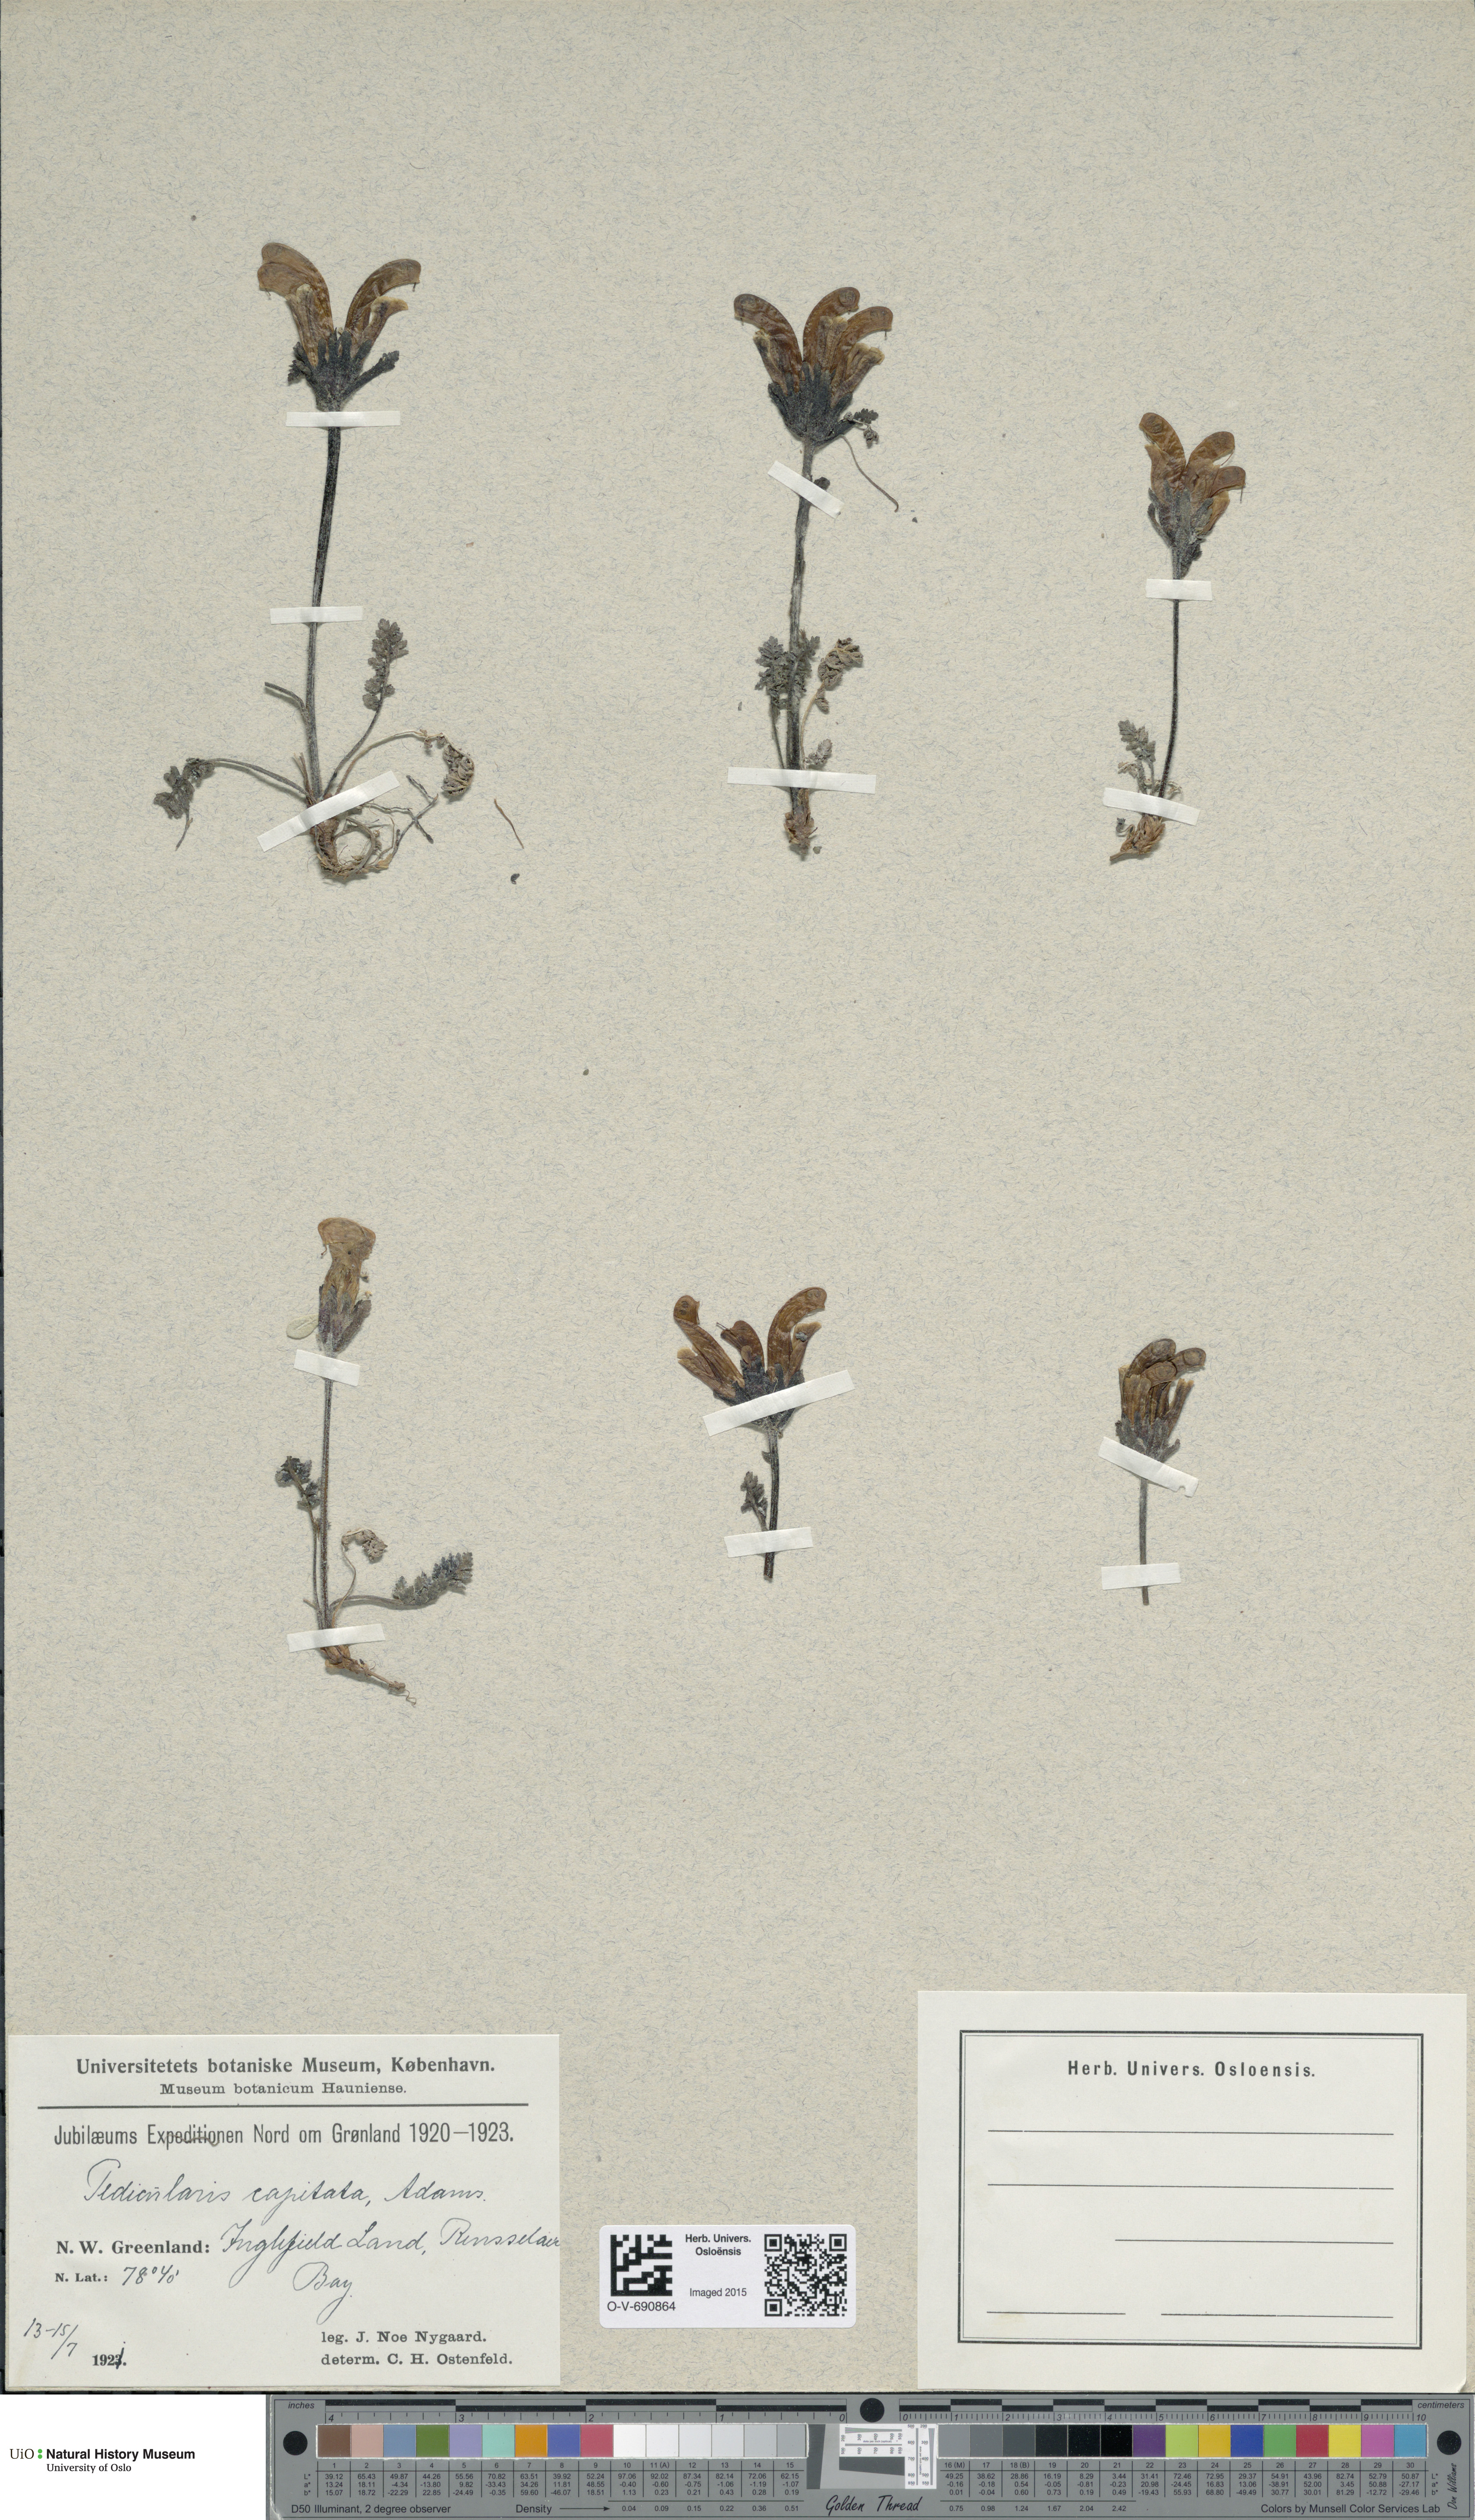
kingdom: Plantae
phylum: Tracheophyta
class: Magnoliopsida
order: Lamiales
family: Orobanchaceae
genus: Pedicularis
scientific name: Pedicularis capitata
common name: Capitate lousewort
